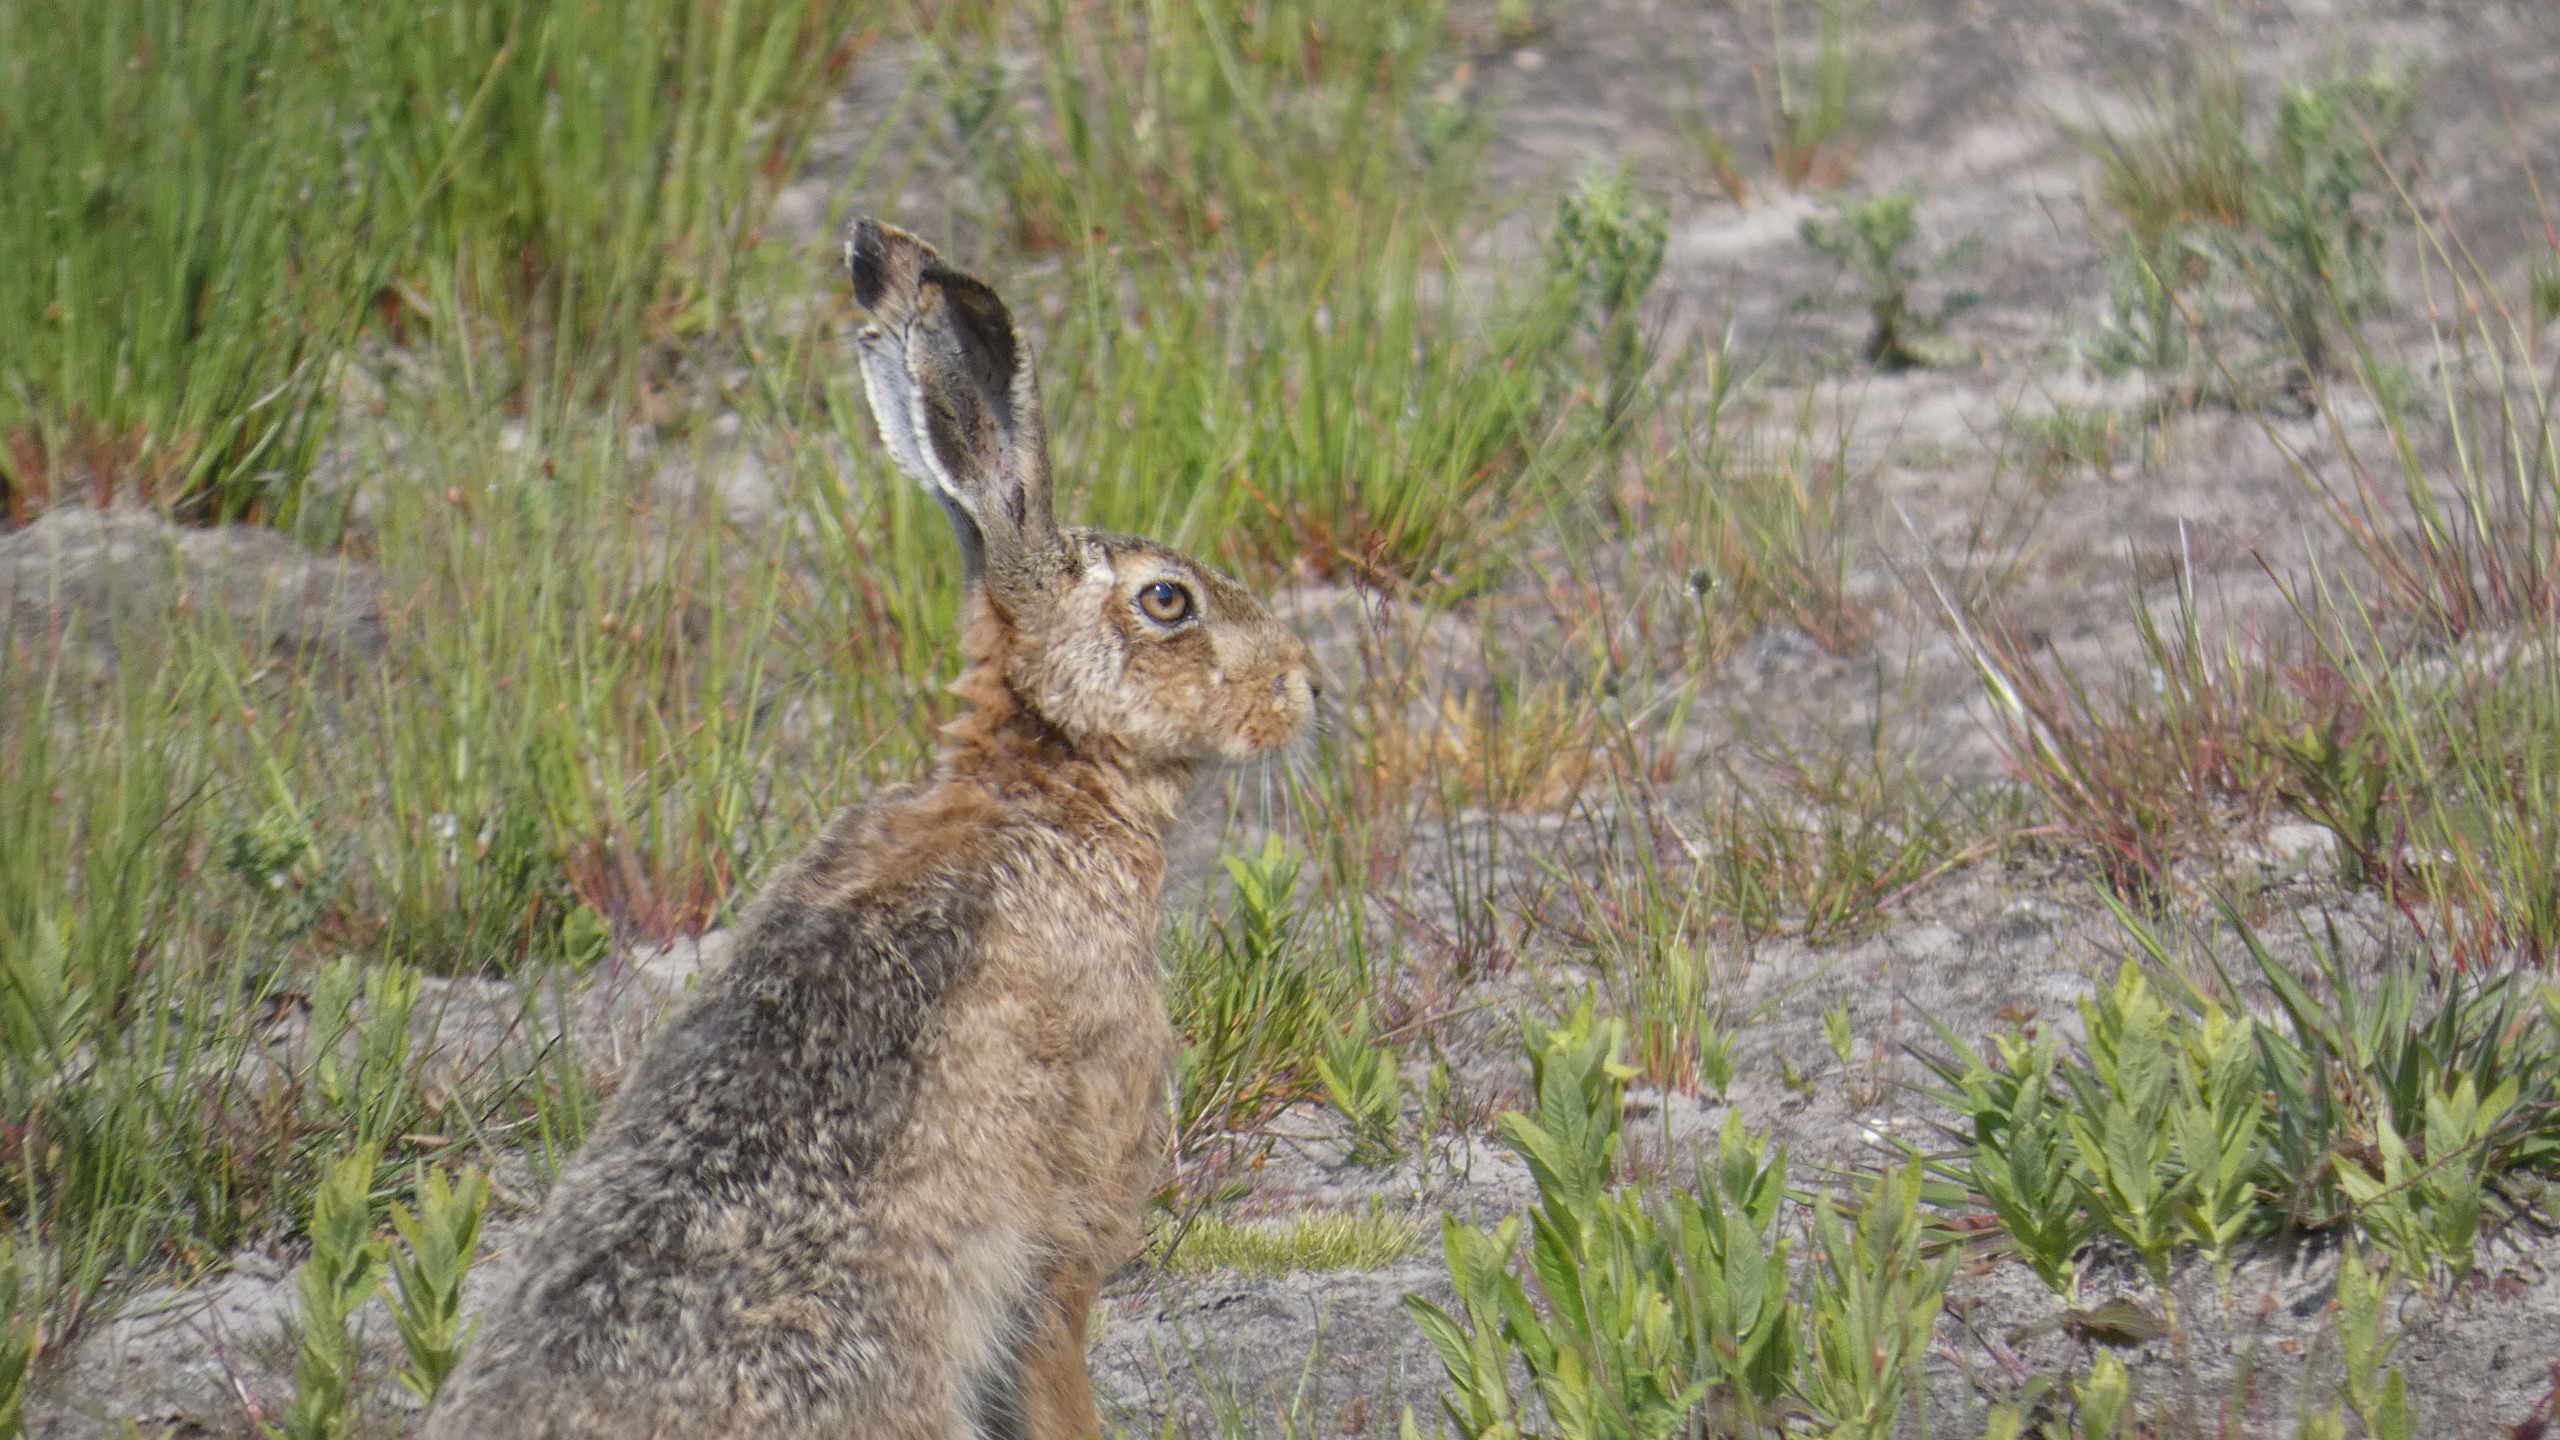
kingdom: Animalia
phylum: Chordata
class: Mammalia
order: Lagomorpha
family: Leporidae
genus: Lepus
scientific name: Lepus europaeus
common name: Hare
